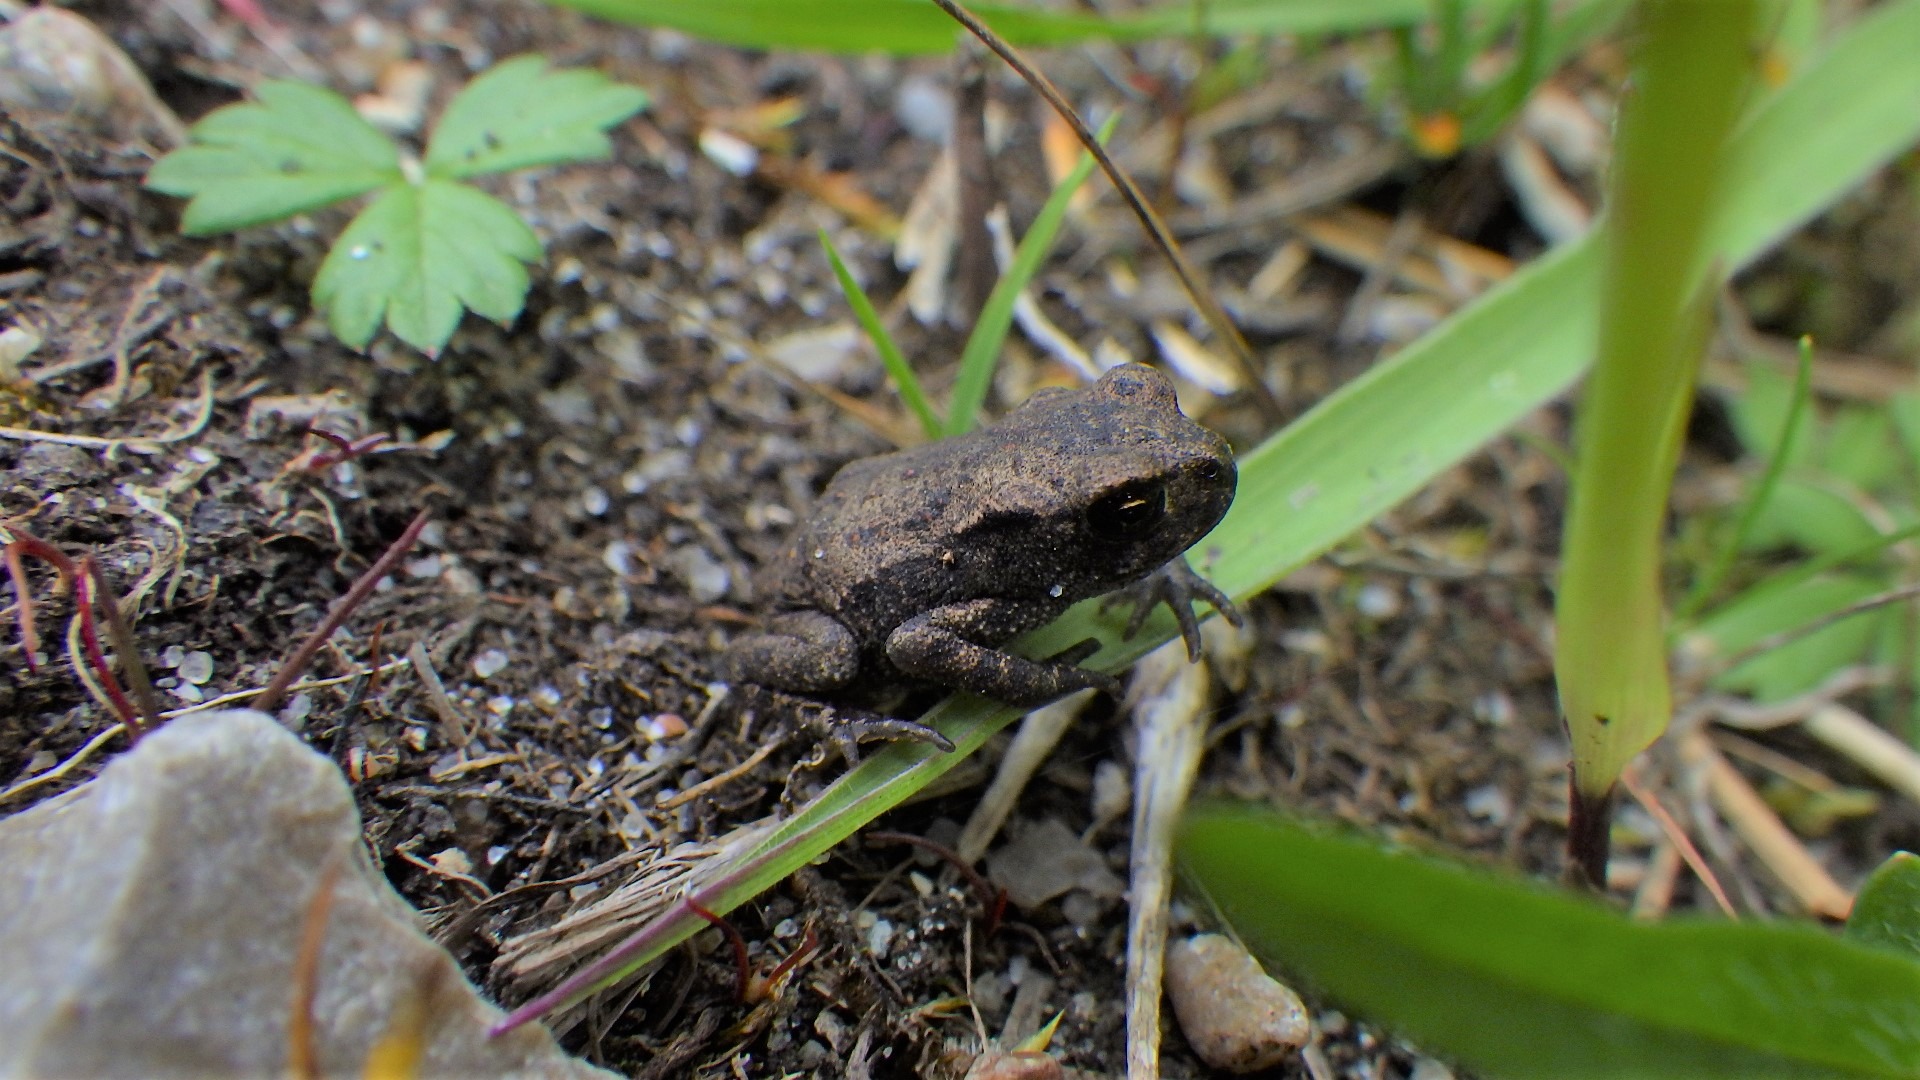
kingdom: Animalia
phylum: Chordata
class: Amphibia
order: Anura
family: Bufonidae
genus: Bufo
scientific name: Bufo bufo
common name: Skrubtudse
